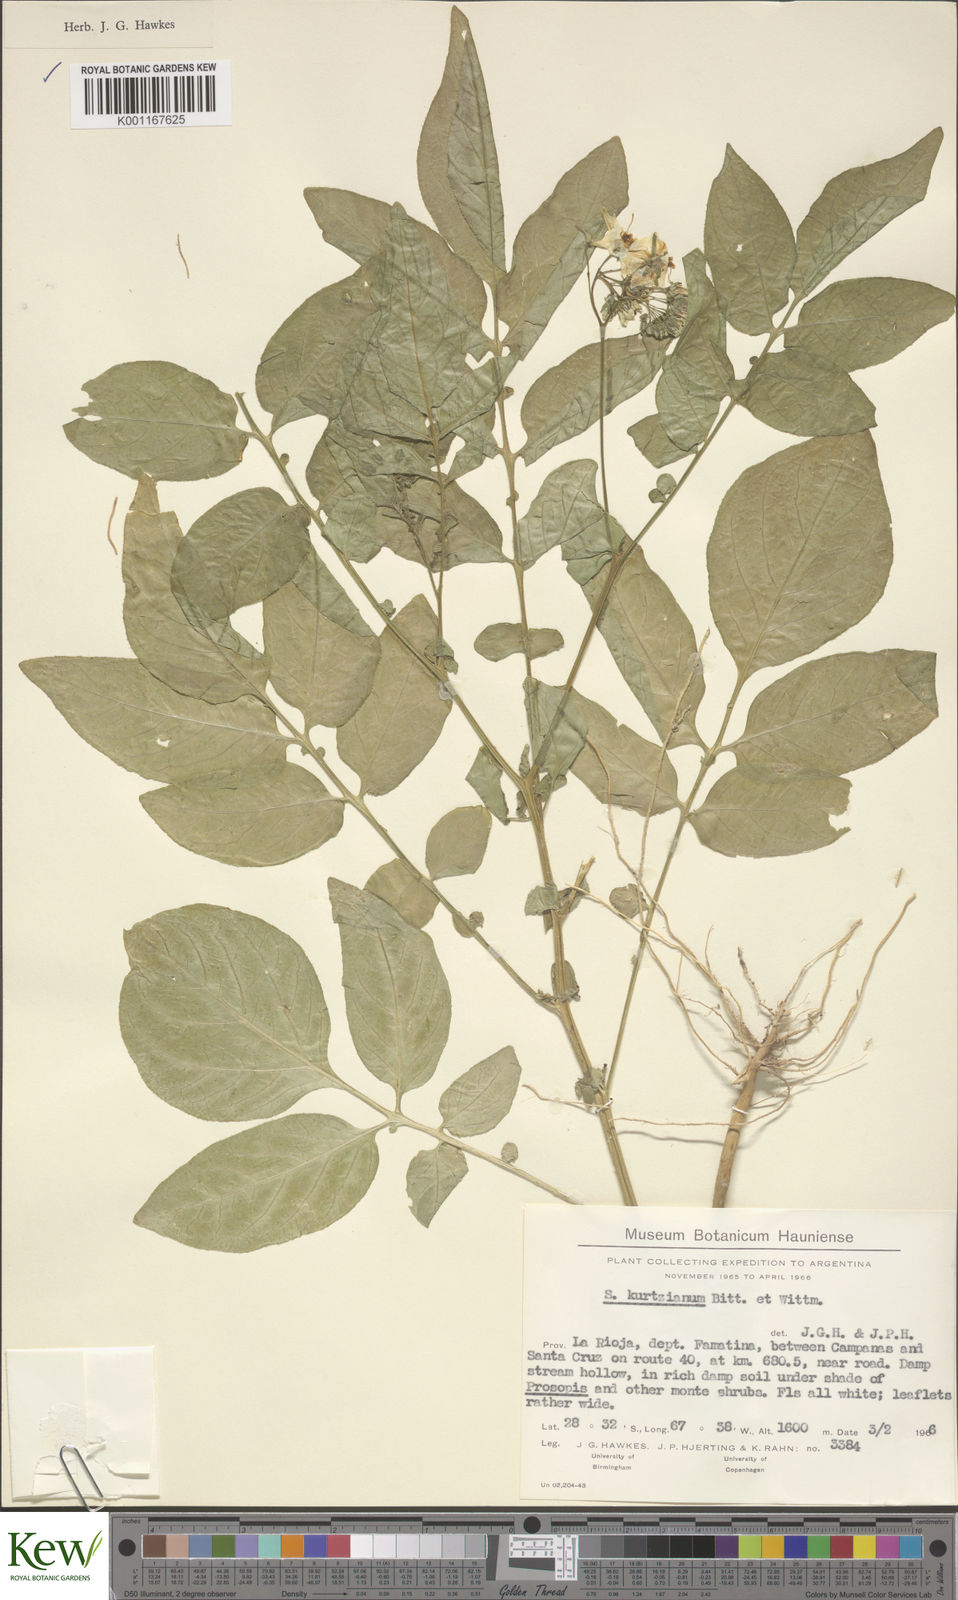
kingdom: Plantae
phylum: Tracheophyta
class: Magnoliopsida
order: Solanales
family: Solanaceae
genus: Solanum
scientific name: Solanum kurtzianum
